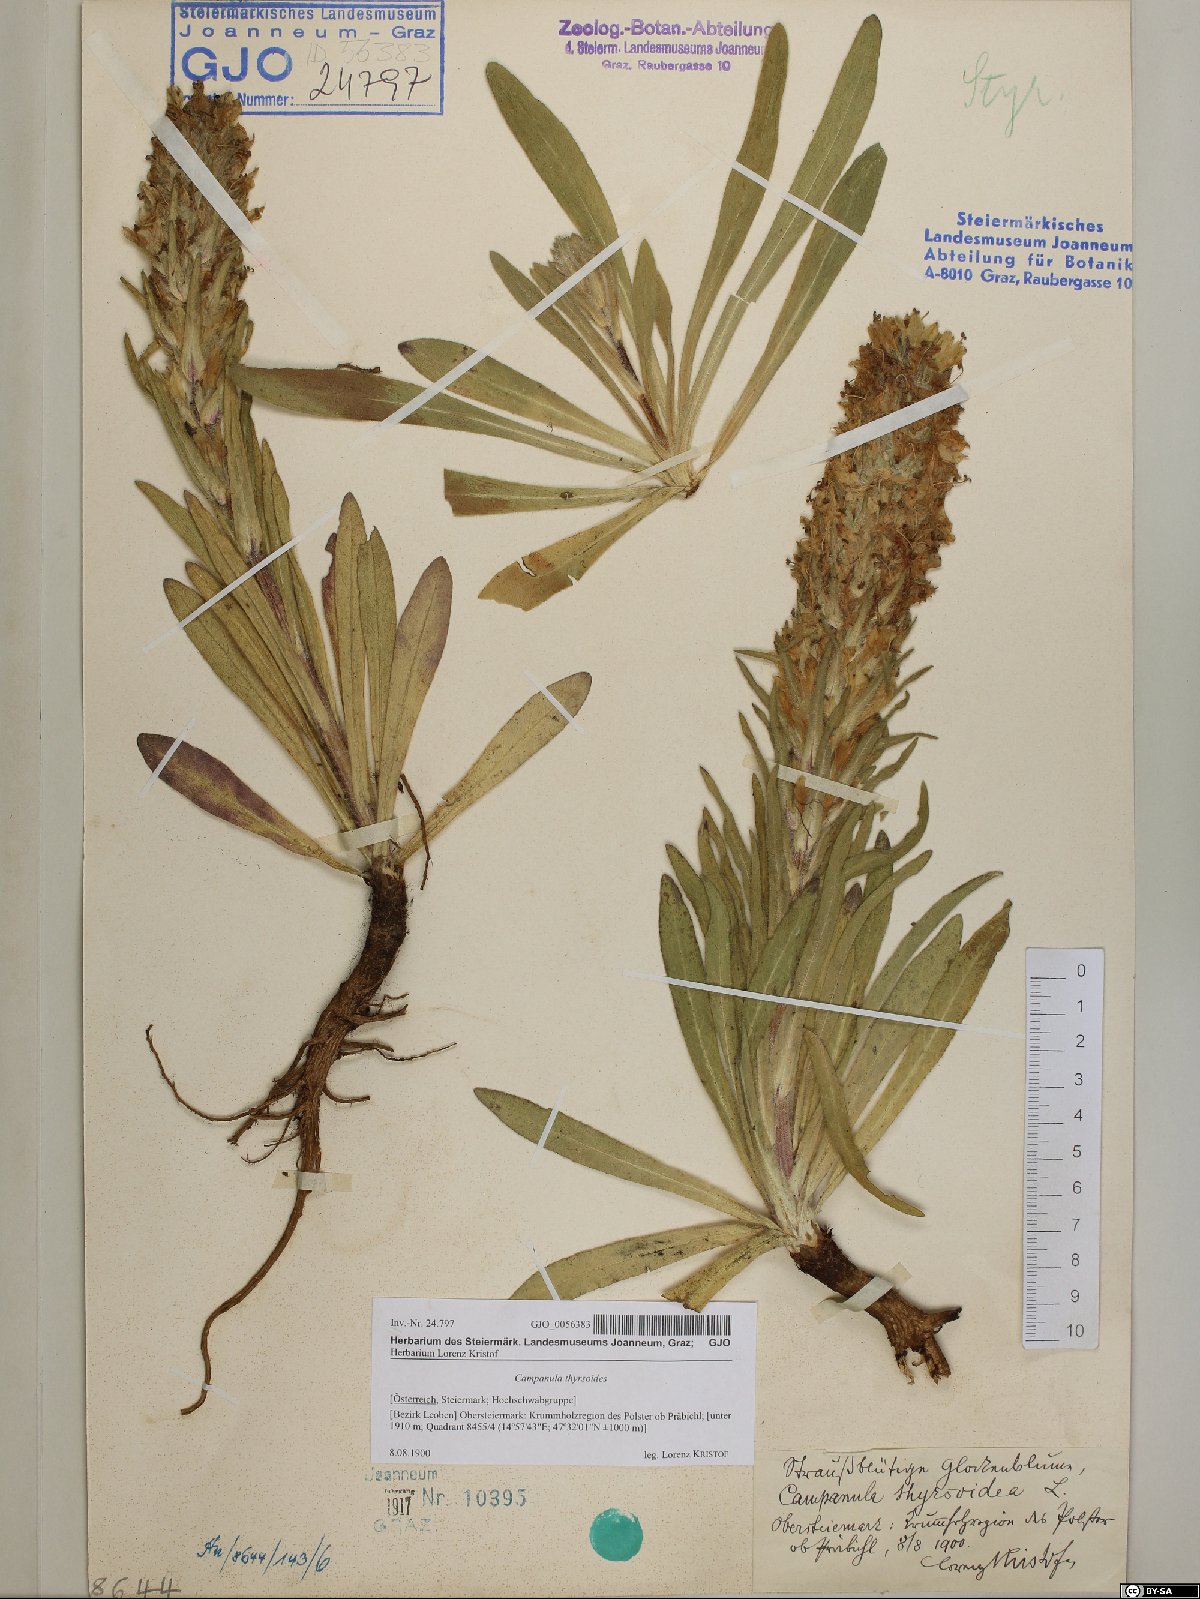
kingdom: Plantae
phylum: Tracheophyta
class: Magnoliopsida
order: Asterales
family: Campanulaceae
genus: Campanula
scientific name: Campanula thyrsoides
